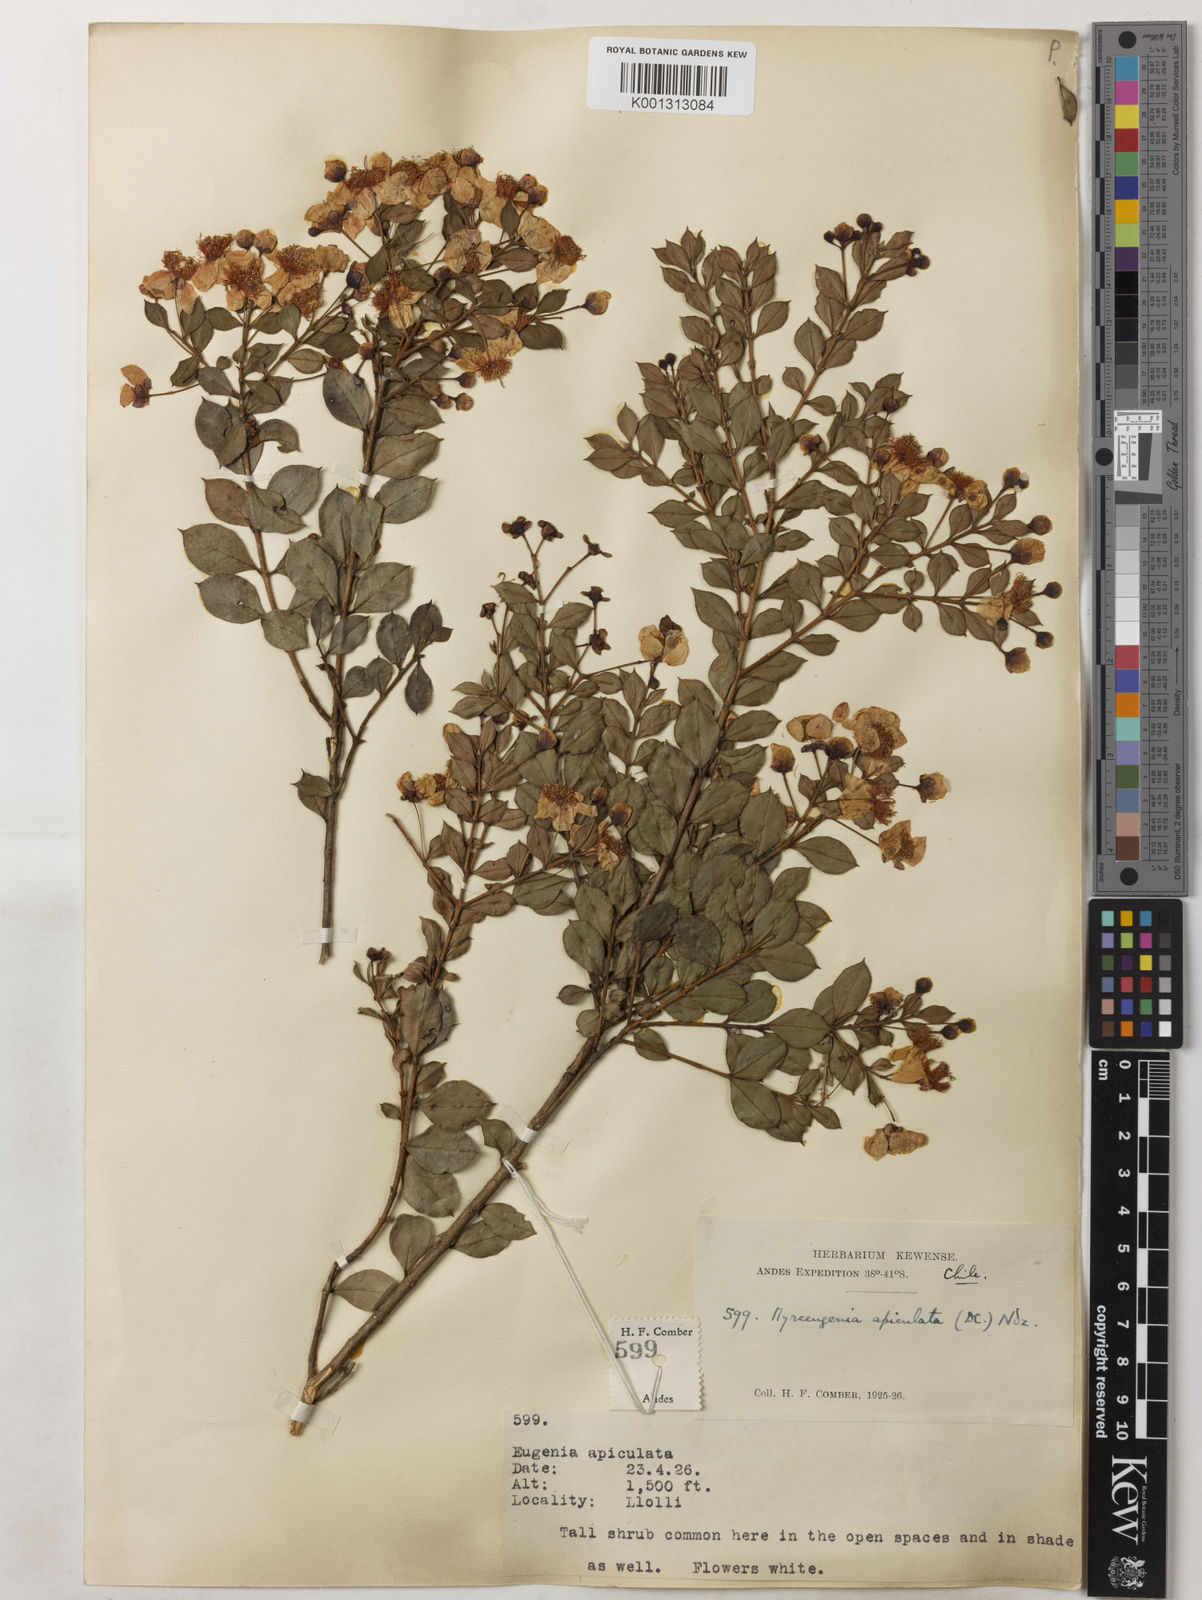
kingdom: Plantae
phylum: Tracheophyta
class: Magnoliopsida
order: Myrtales
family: Myrtaceae
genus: Luma
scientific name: Luma apiculata
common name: Chilean myrtle
